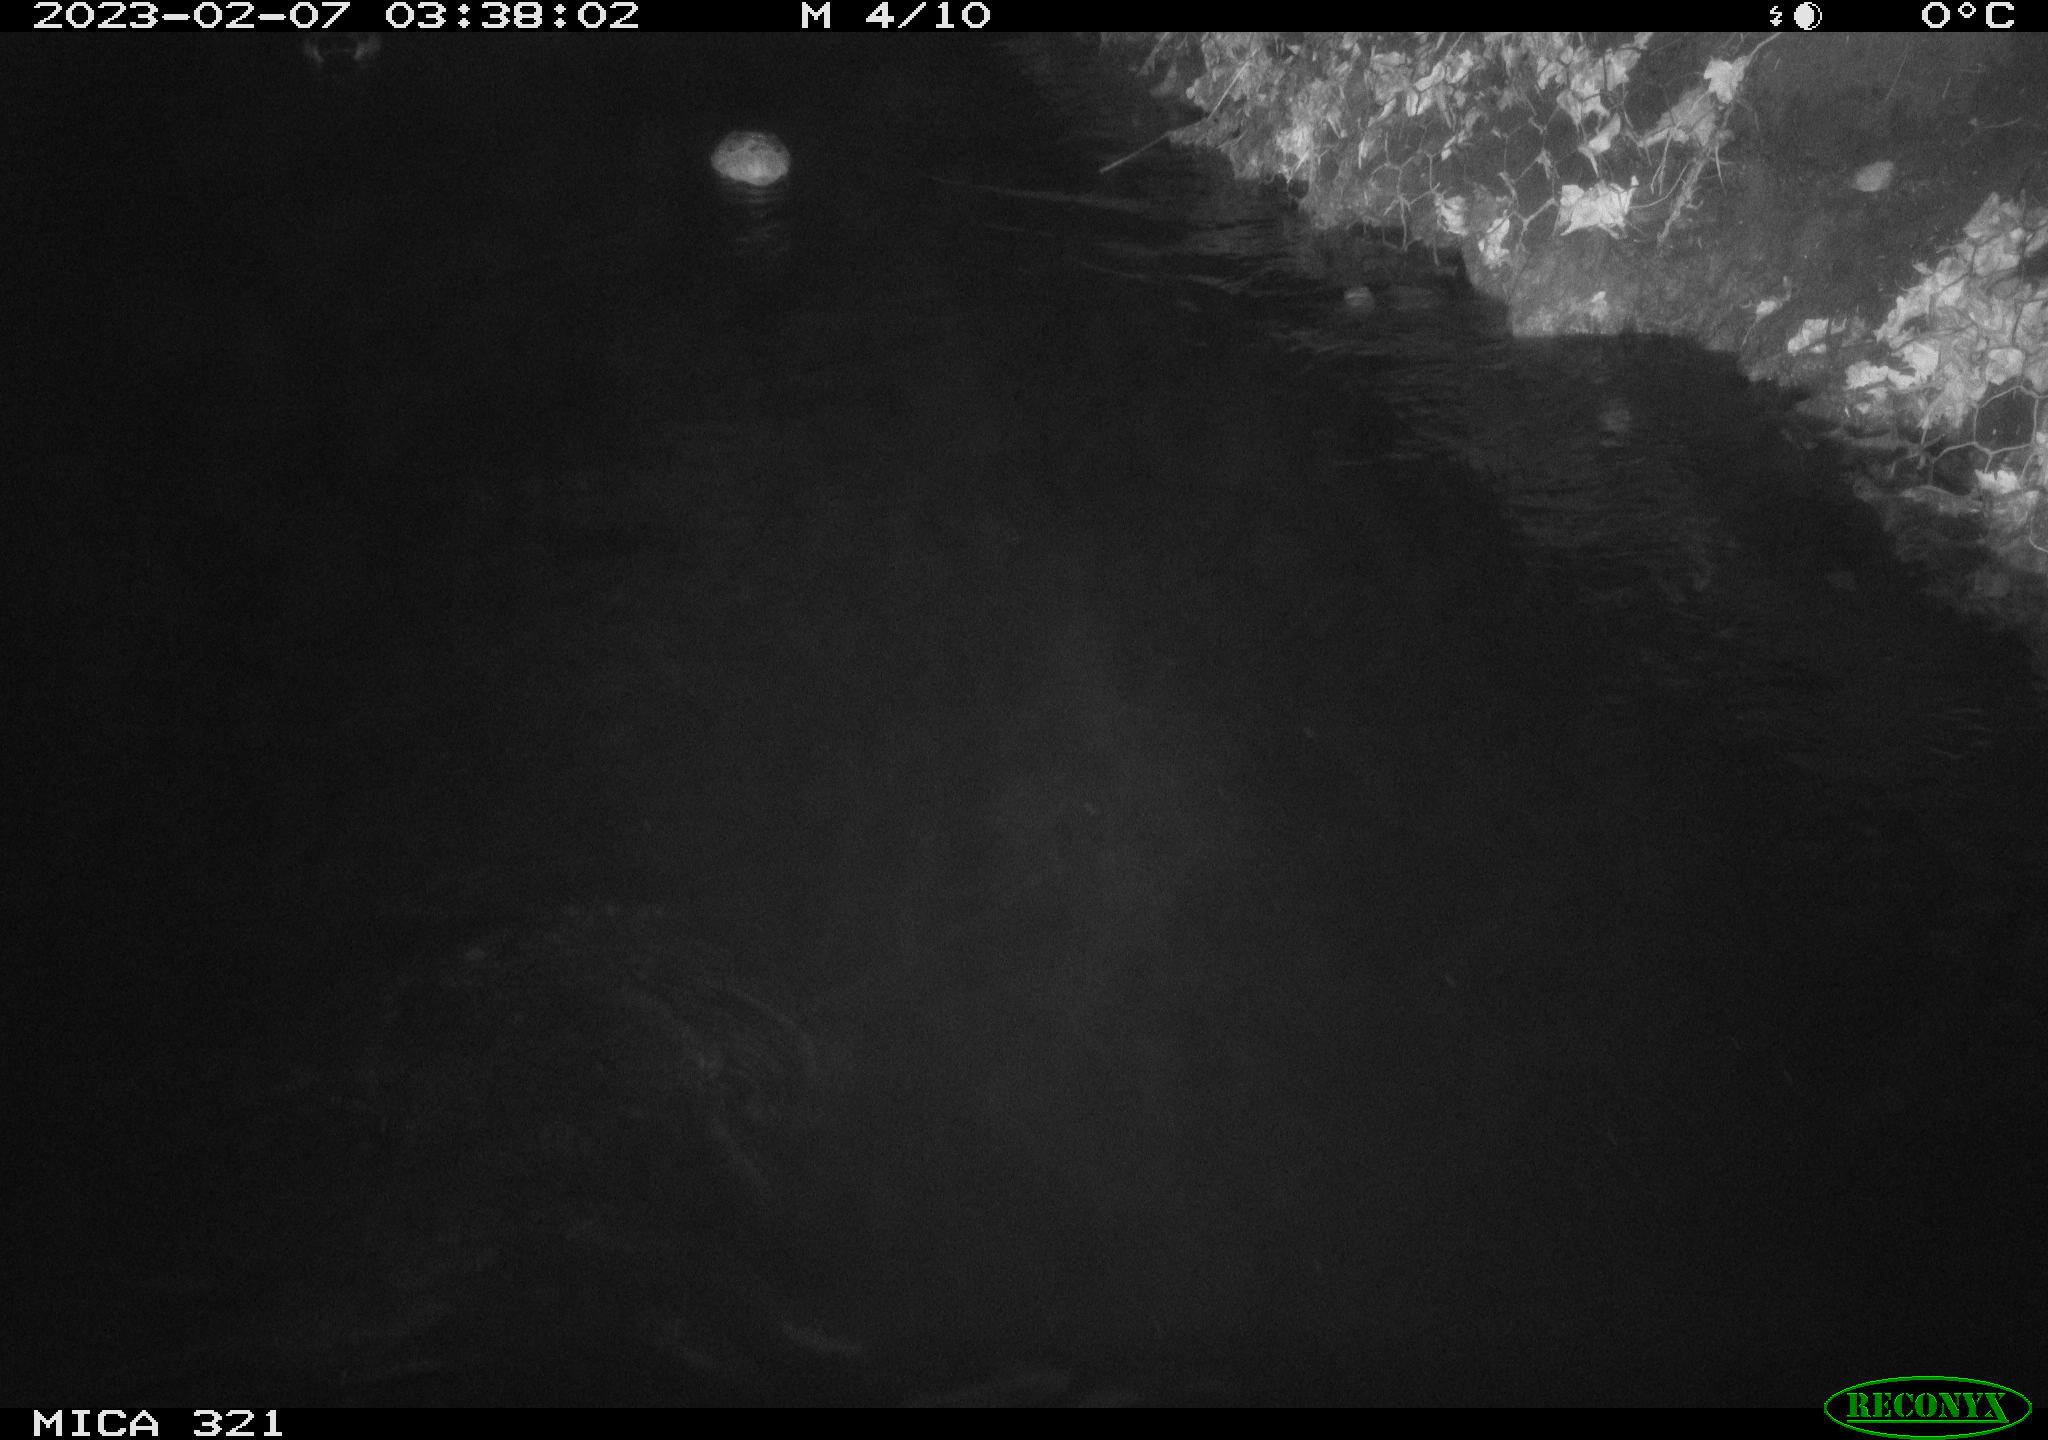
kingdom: Animalia
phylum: Chordata
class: Aves
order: Anseriformes
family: Anatidae
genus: Anas
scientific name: Anas
